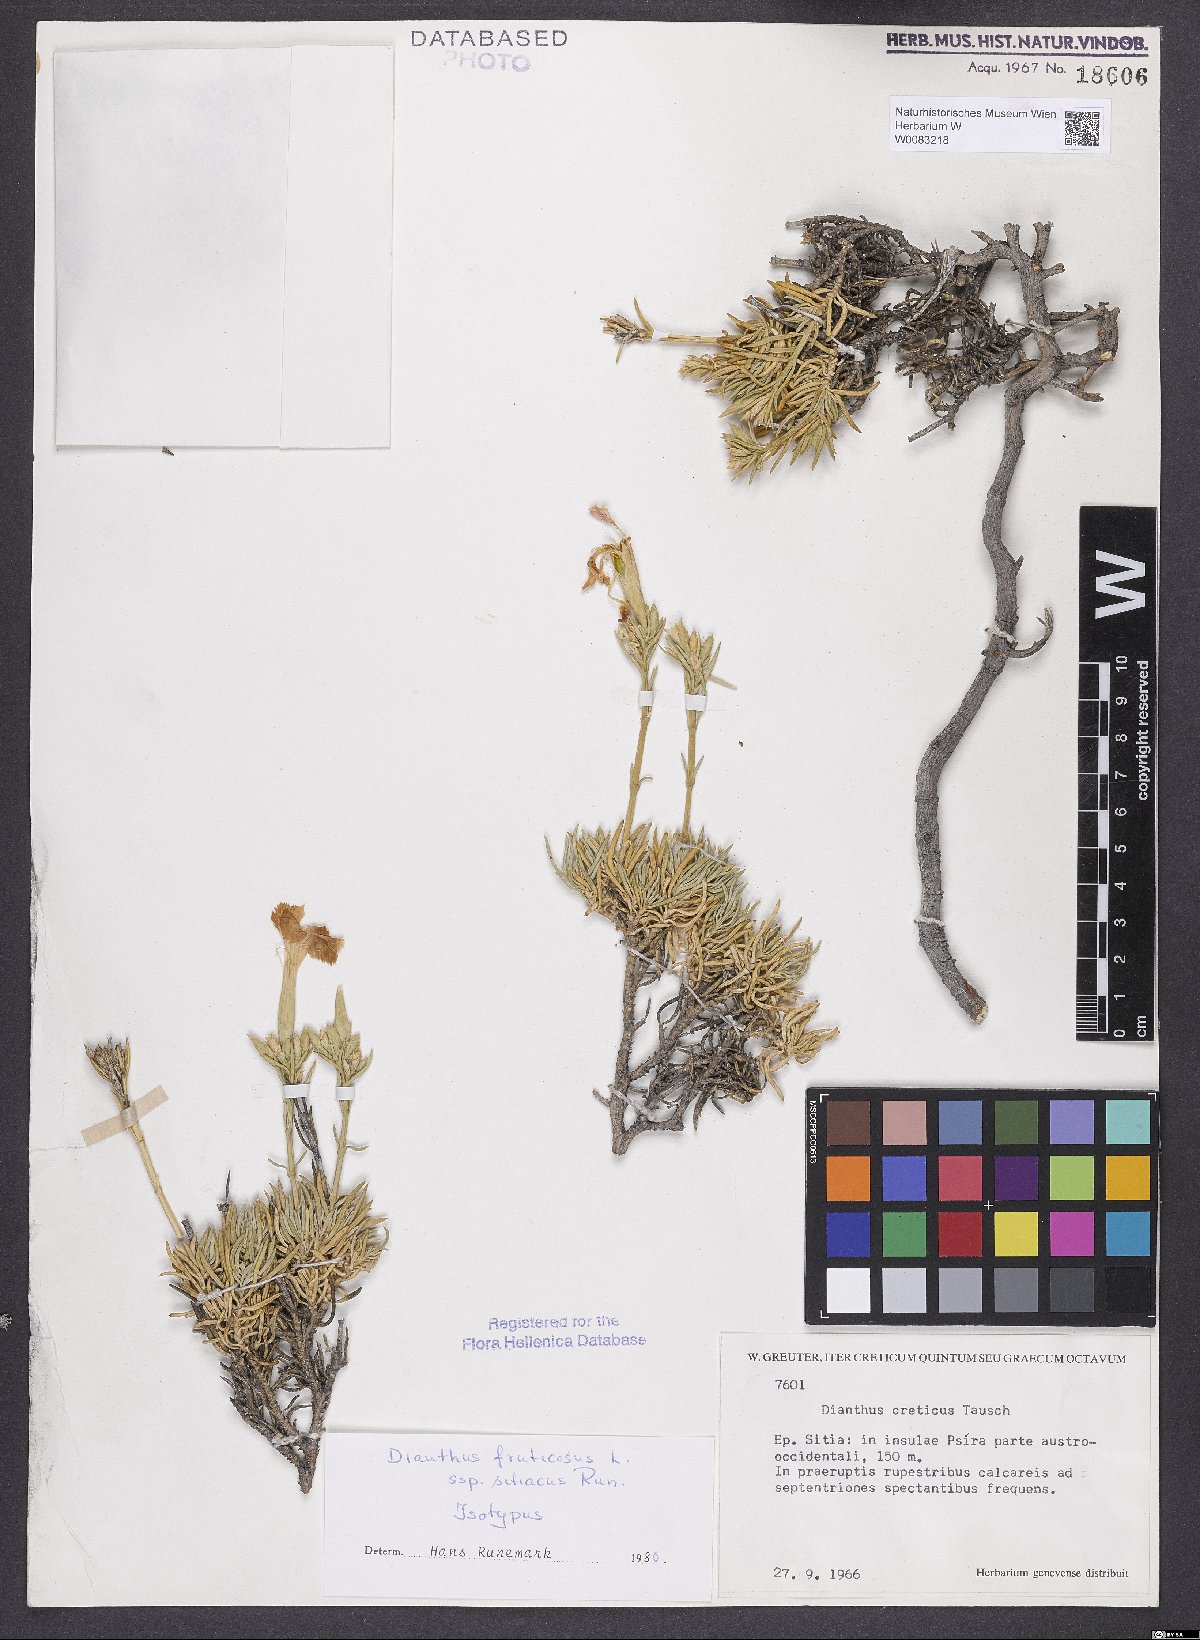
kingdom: Plantae
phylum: Tracheophyta
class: Magnoliopsida
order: Caryophyllales
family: Caryophyllaceae
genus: Dianthus
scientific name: Dianthus fruticosus
